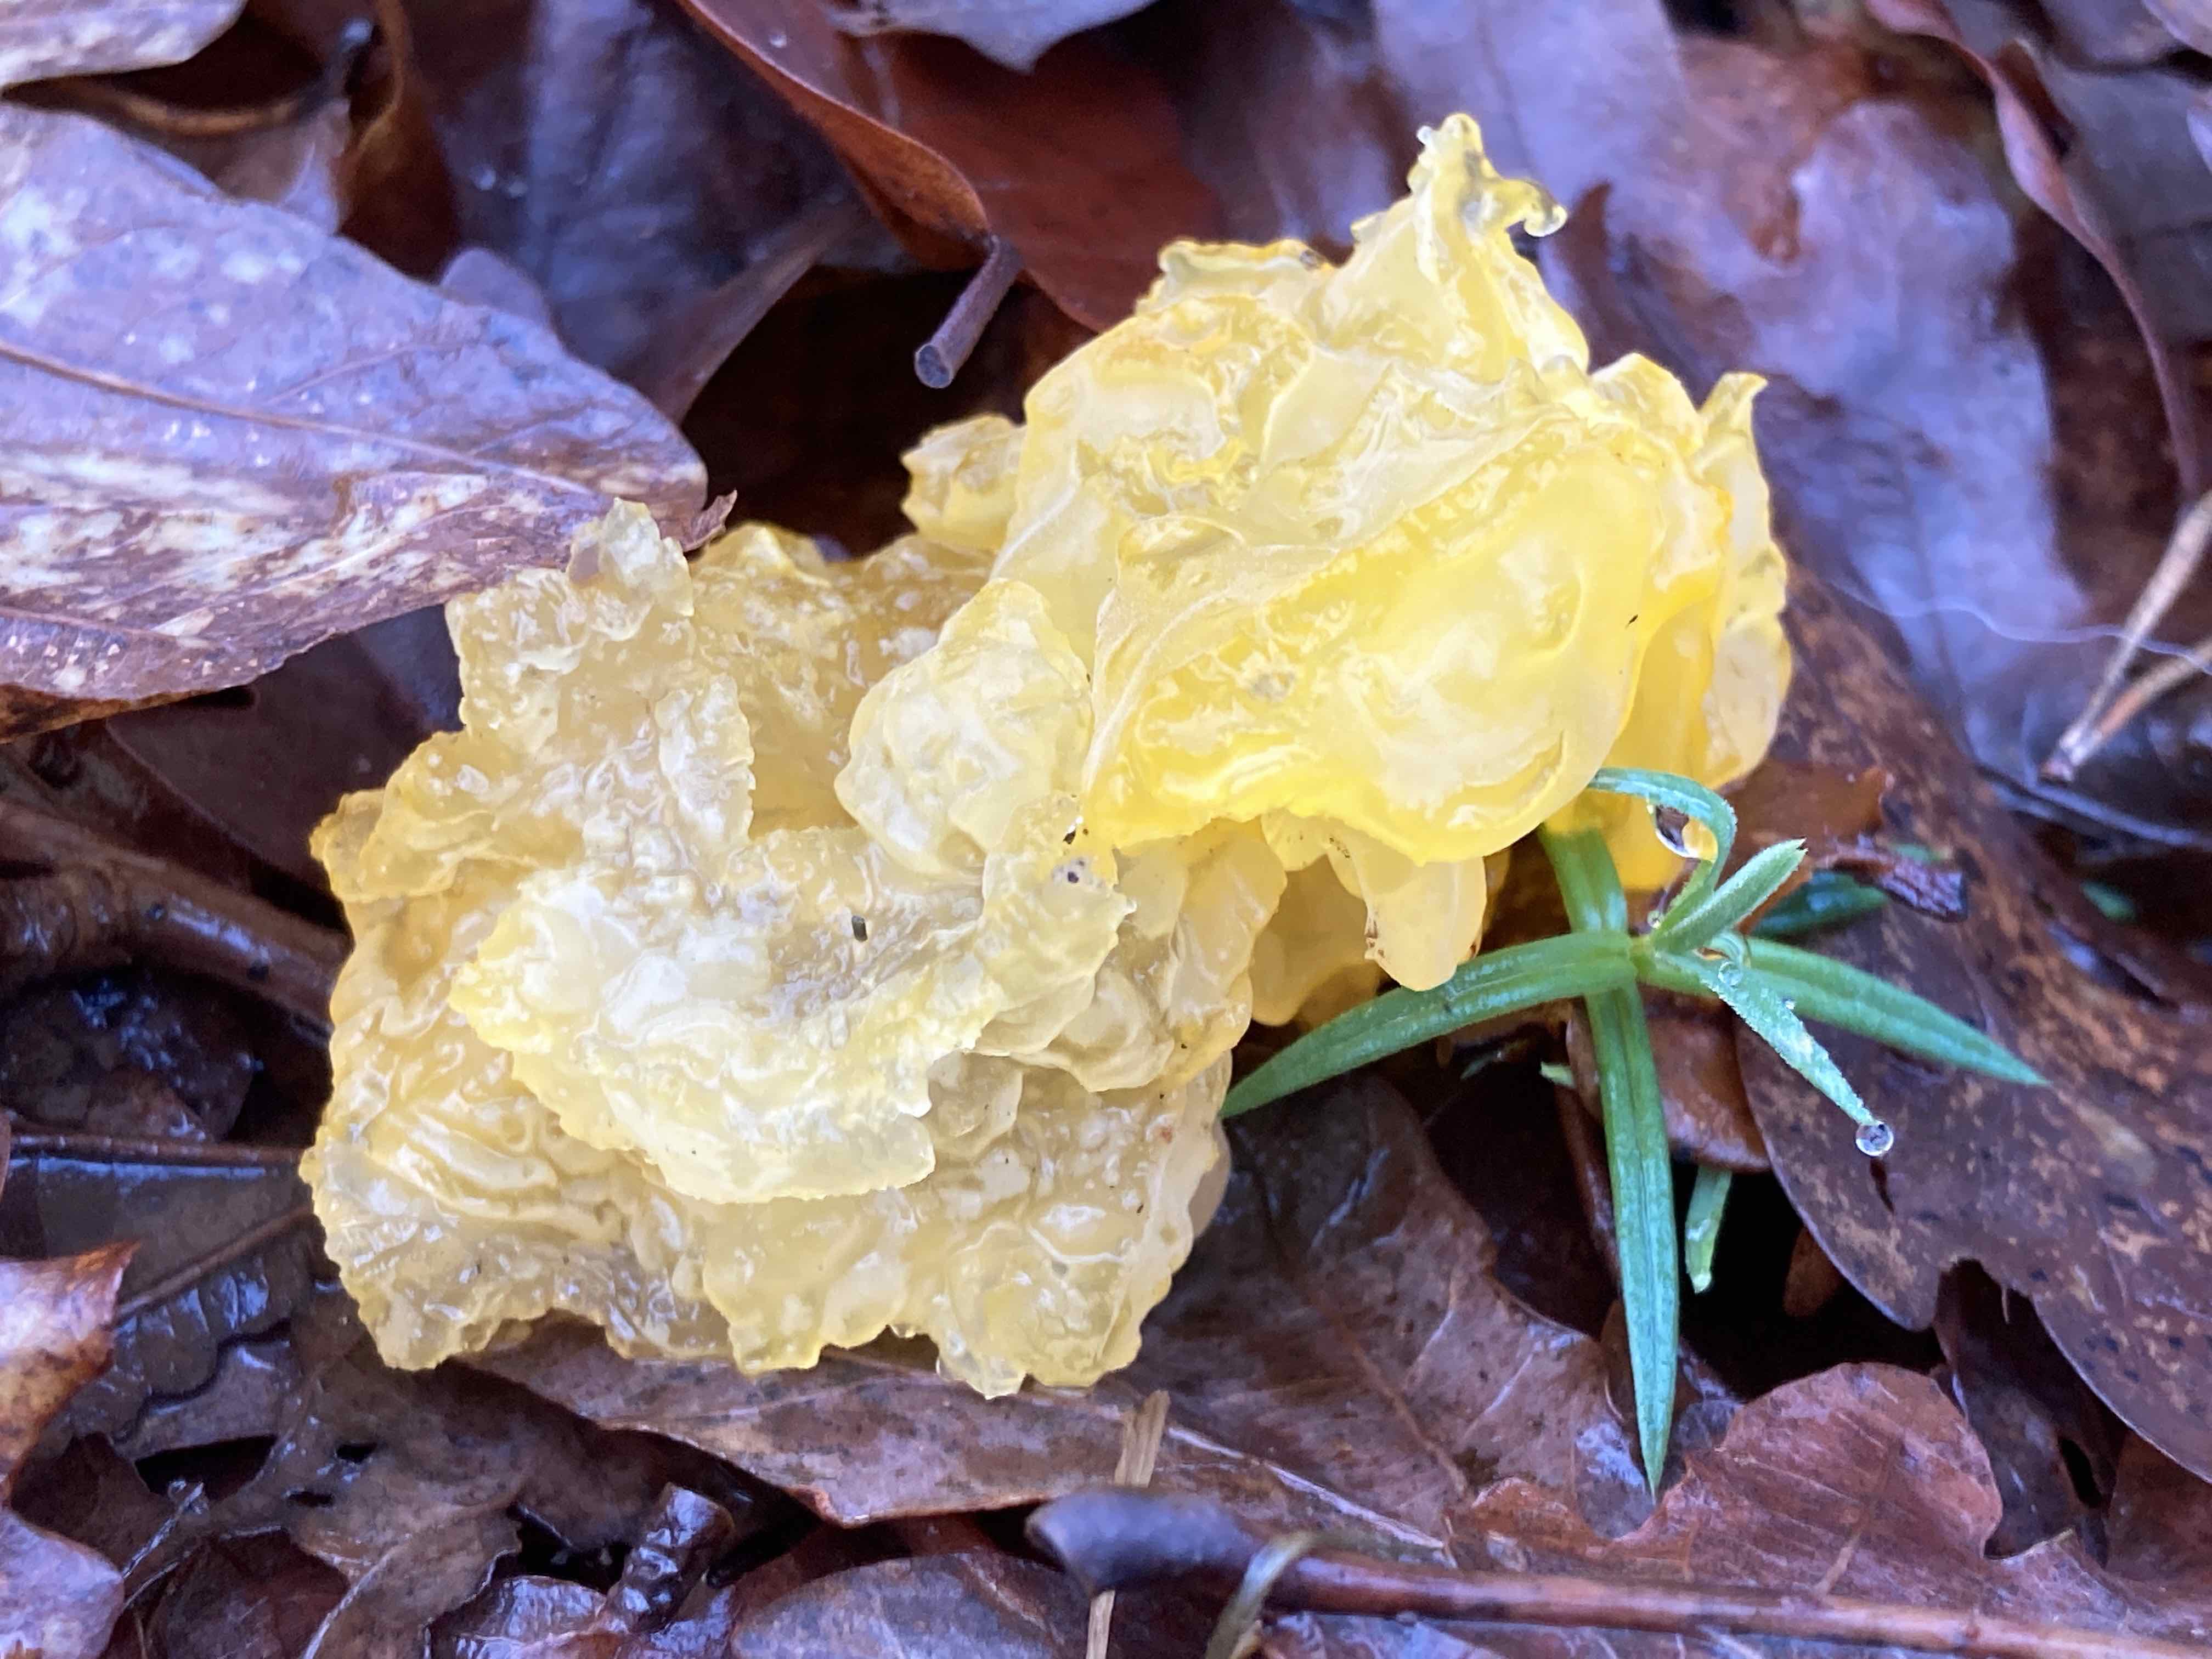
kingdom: Fungi
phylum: Basidiomycota
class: Tremellomycetes
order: Tremellales
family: Tremellaceae
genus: Tremella
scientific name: Tremella mesenterica
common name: gul bævresvamp
